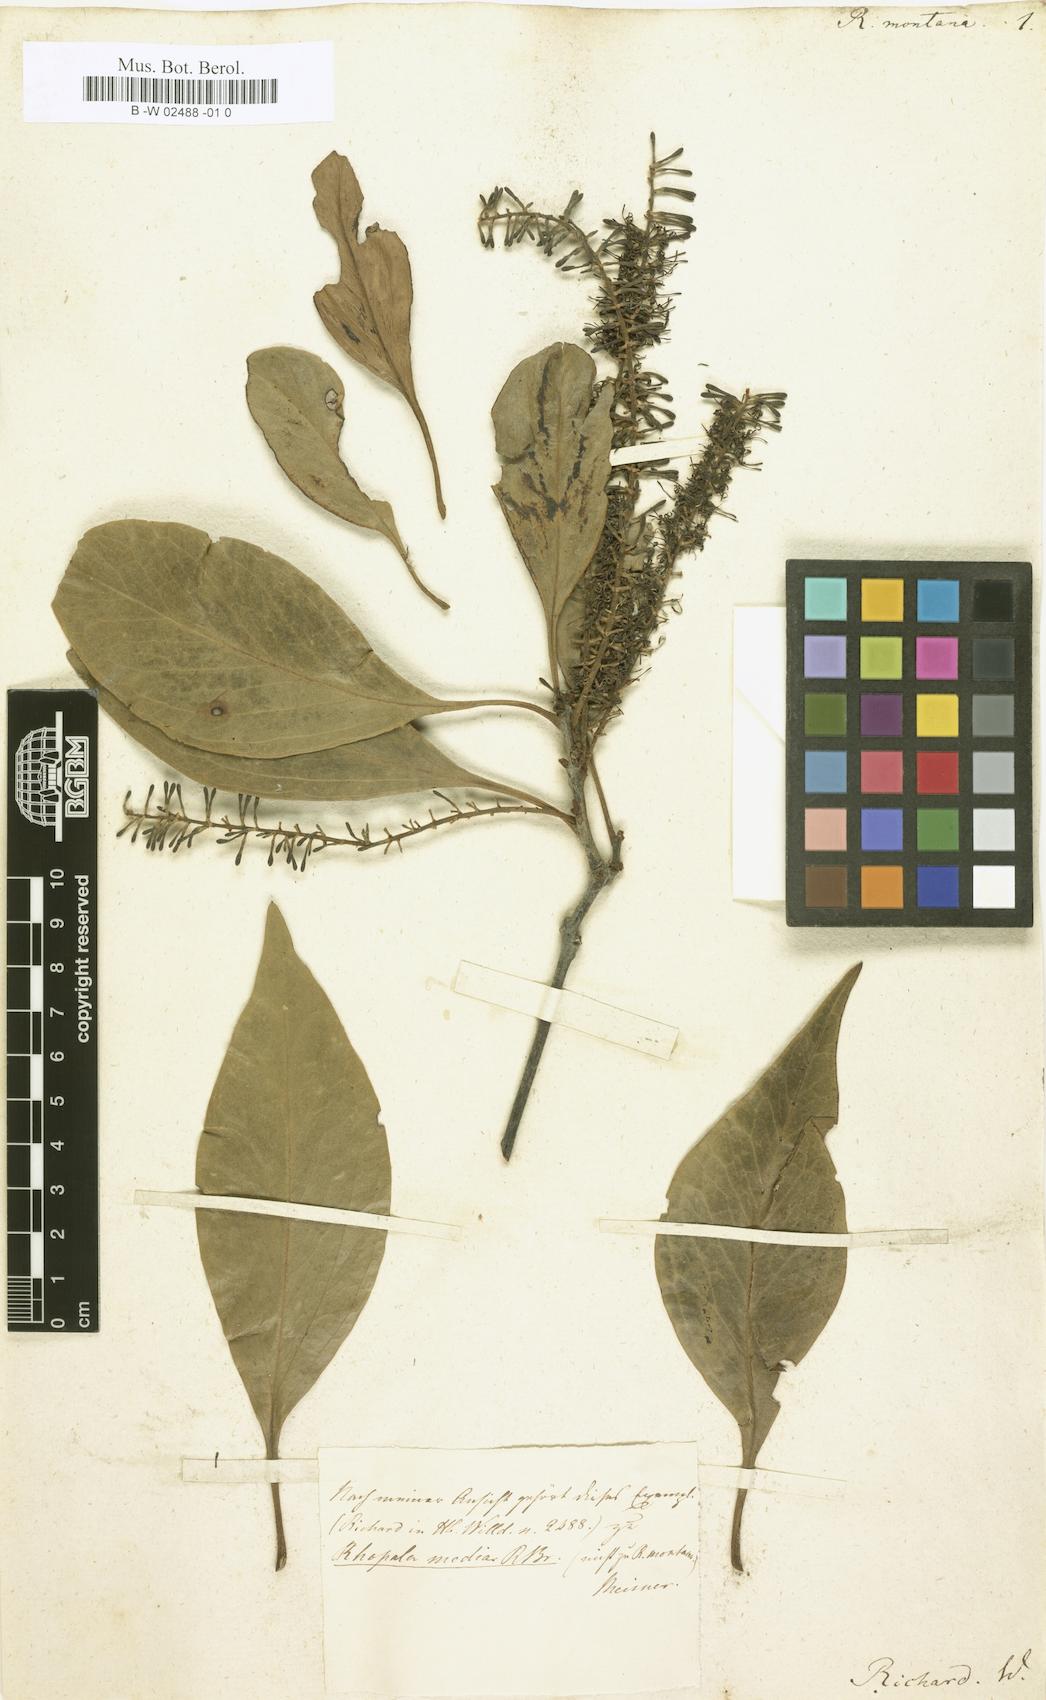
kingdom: Plantae
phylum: Tracheophyta
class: Magnoliopsida
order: Proteales
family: Proteaceae
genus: Roupala
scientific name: Roupala
